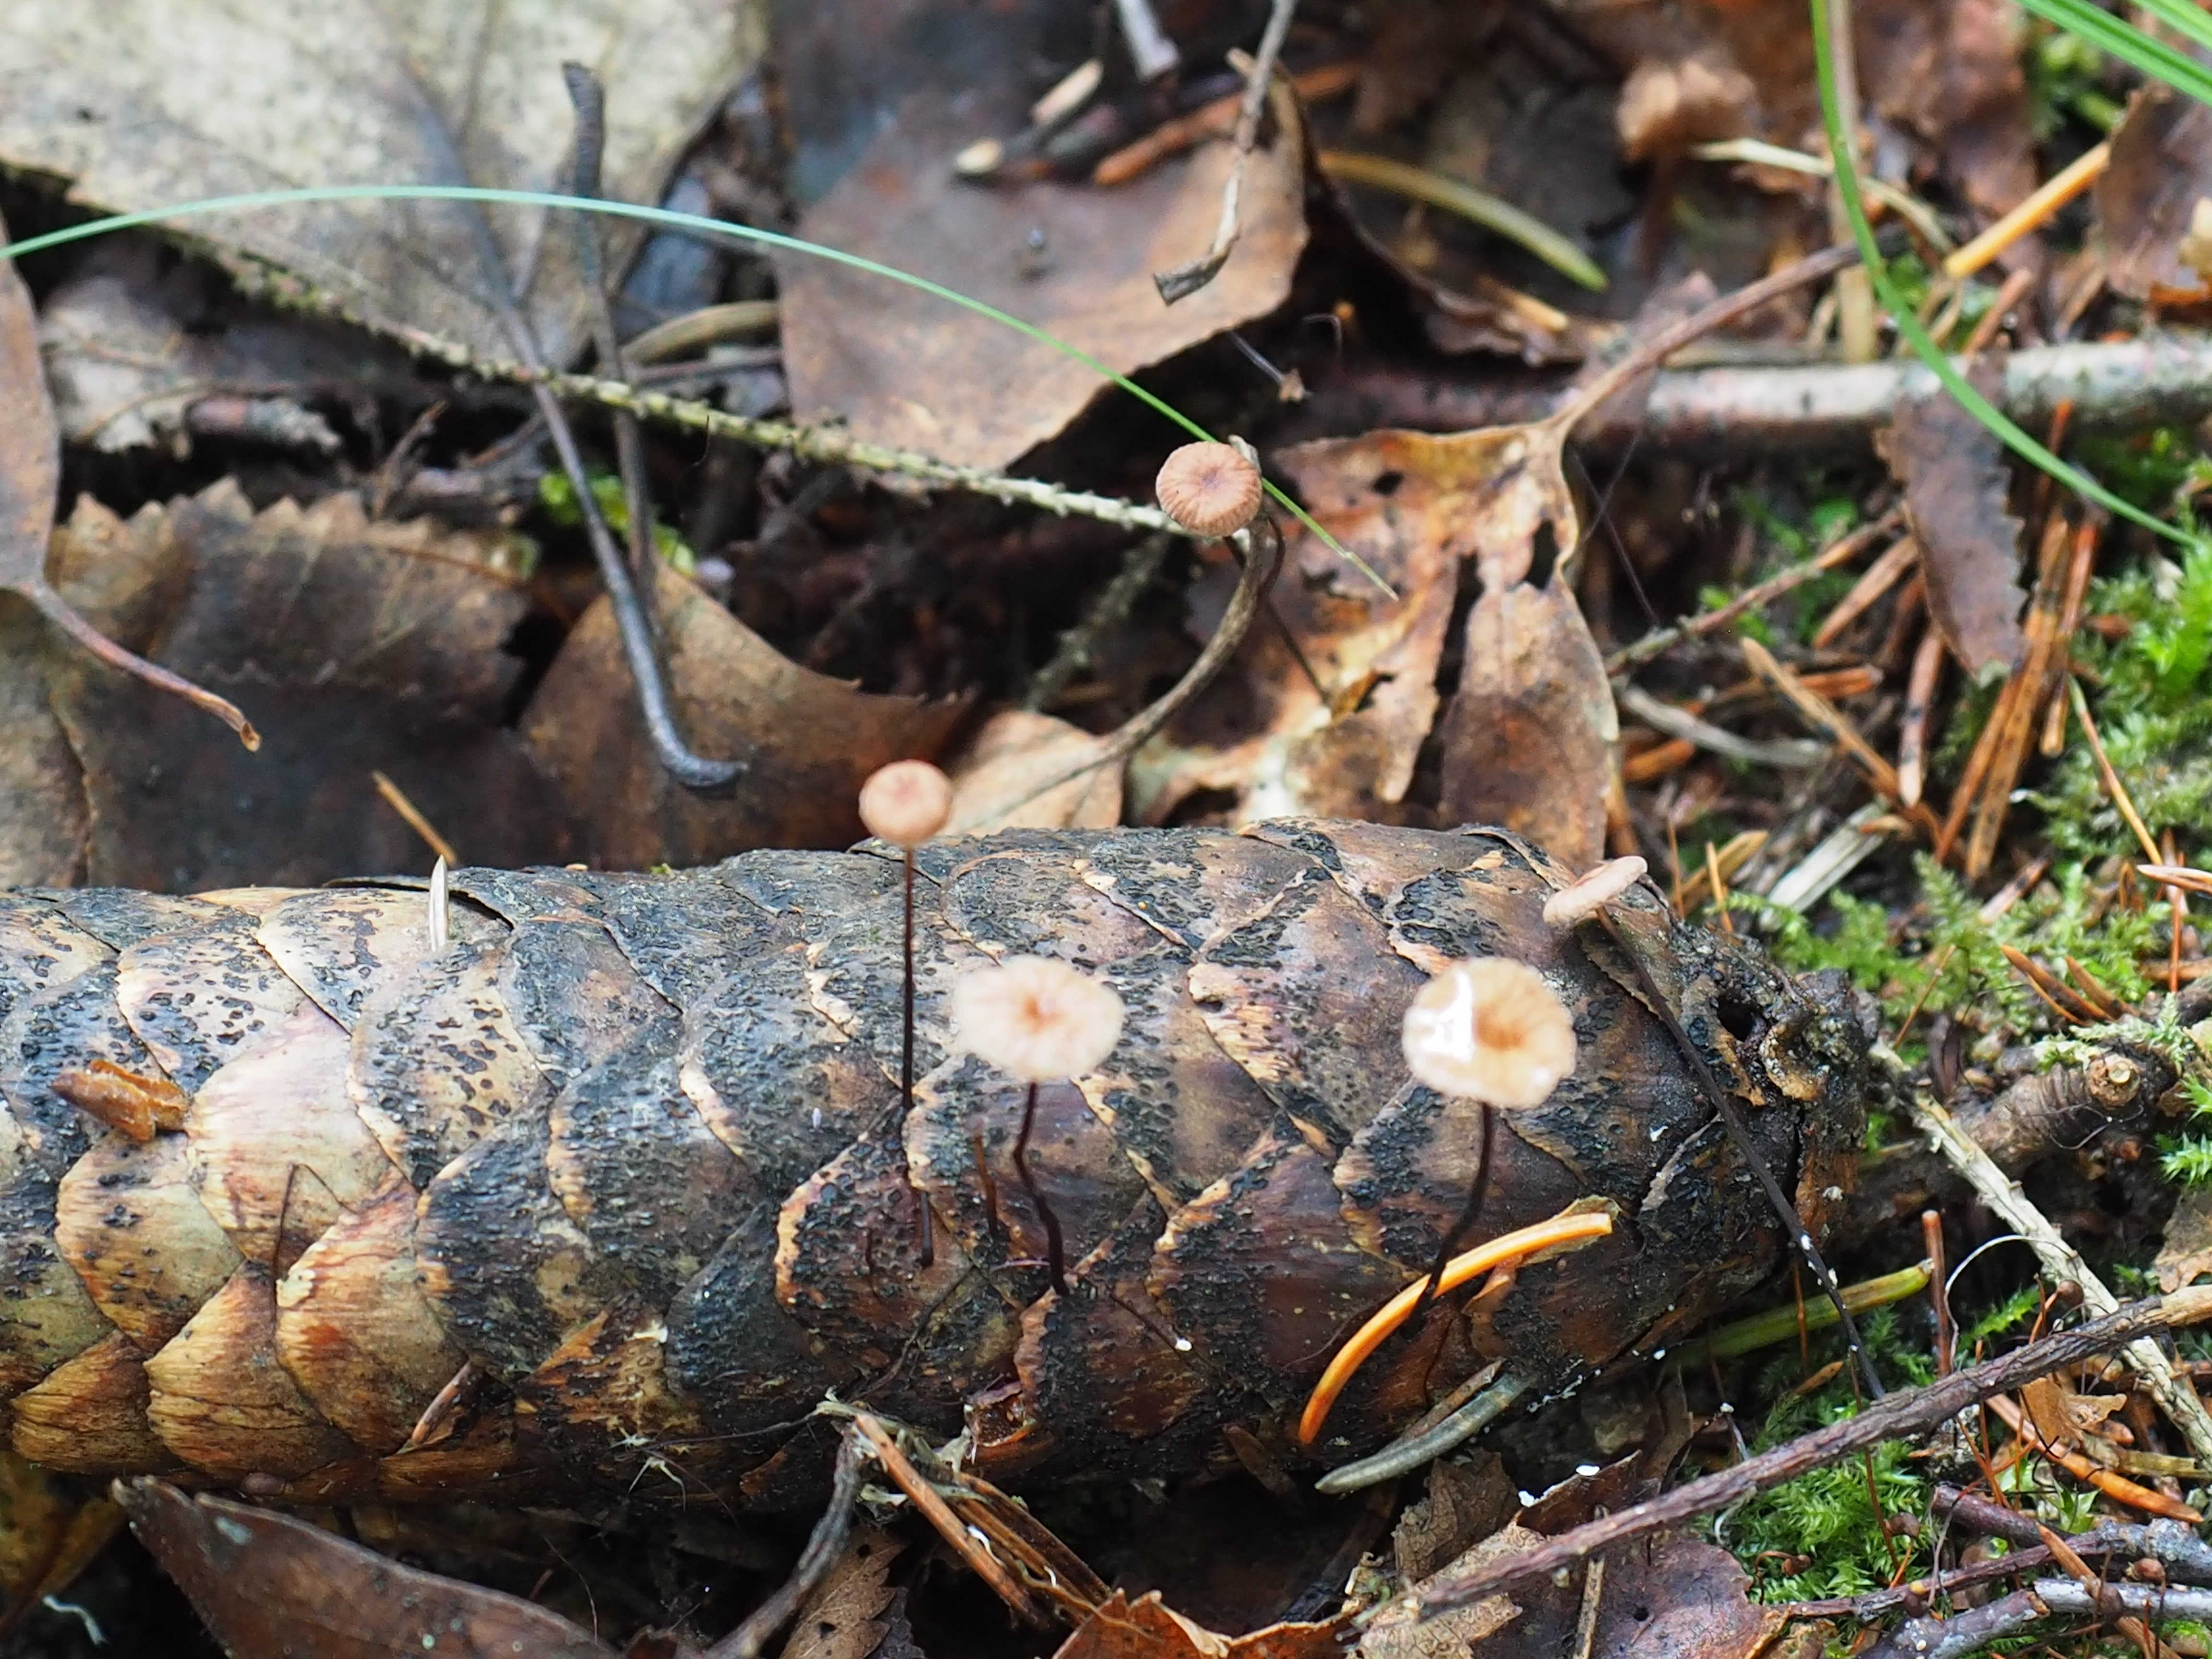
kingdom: Fungi
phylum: Basidiomycota
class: Agaricomycetes
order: Agaricales
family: Omphalotaceae
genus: Gymnopus
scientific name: Gymnopus androsaceus
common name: Horse-hair fungus
